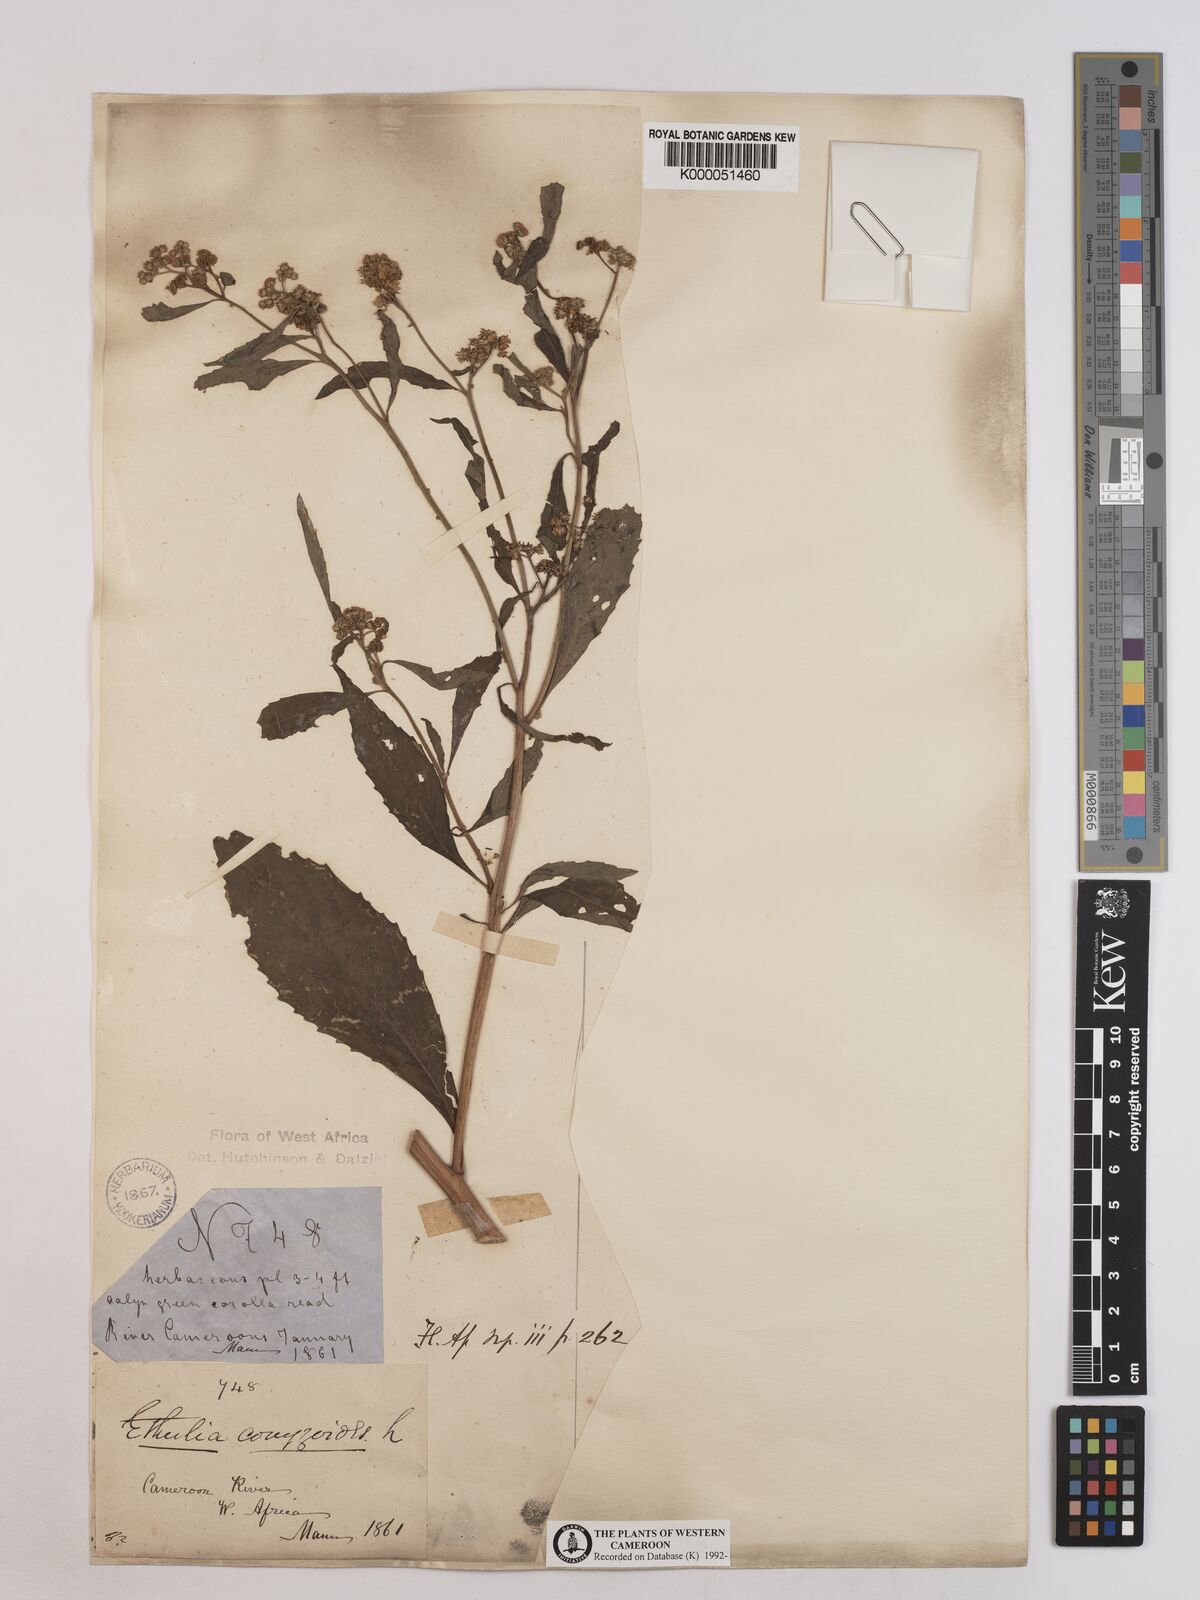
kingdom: Plantae
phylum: Tracheophyta
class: Magnoliopsida
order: Asterales
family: Asteraceae
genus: Ethulia
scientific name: Ethulia conyzoides
